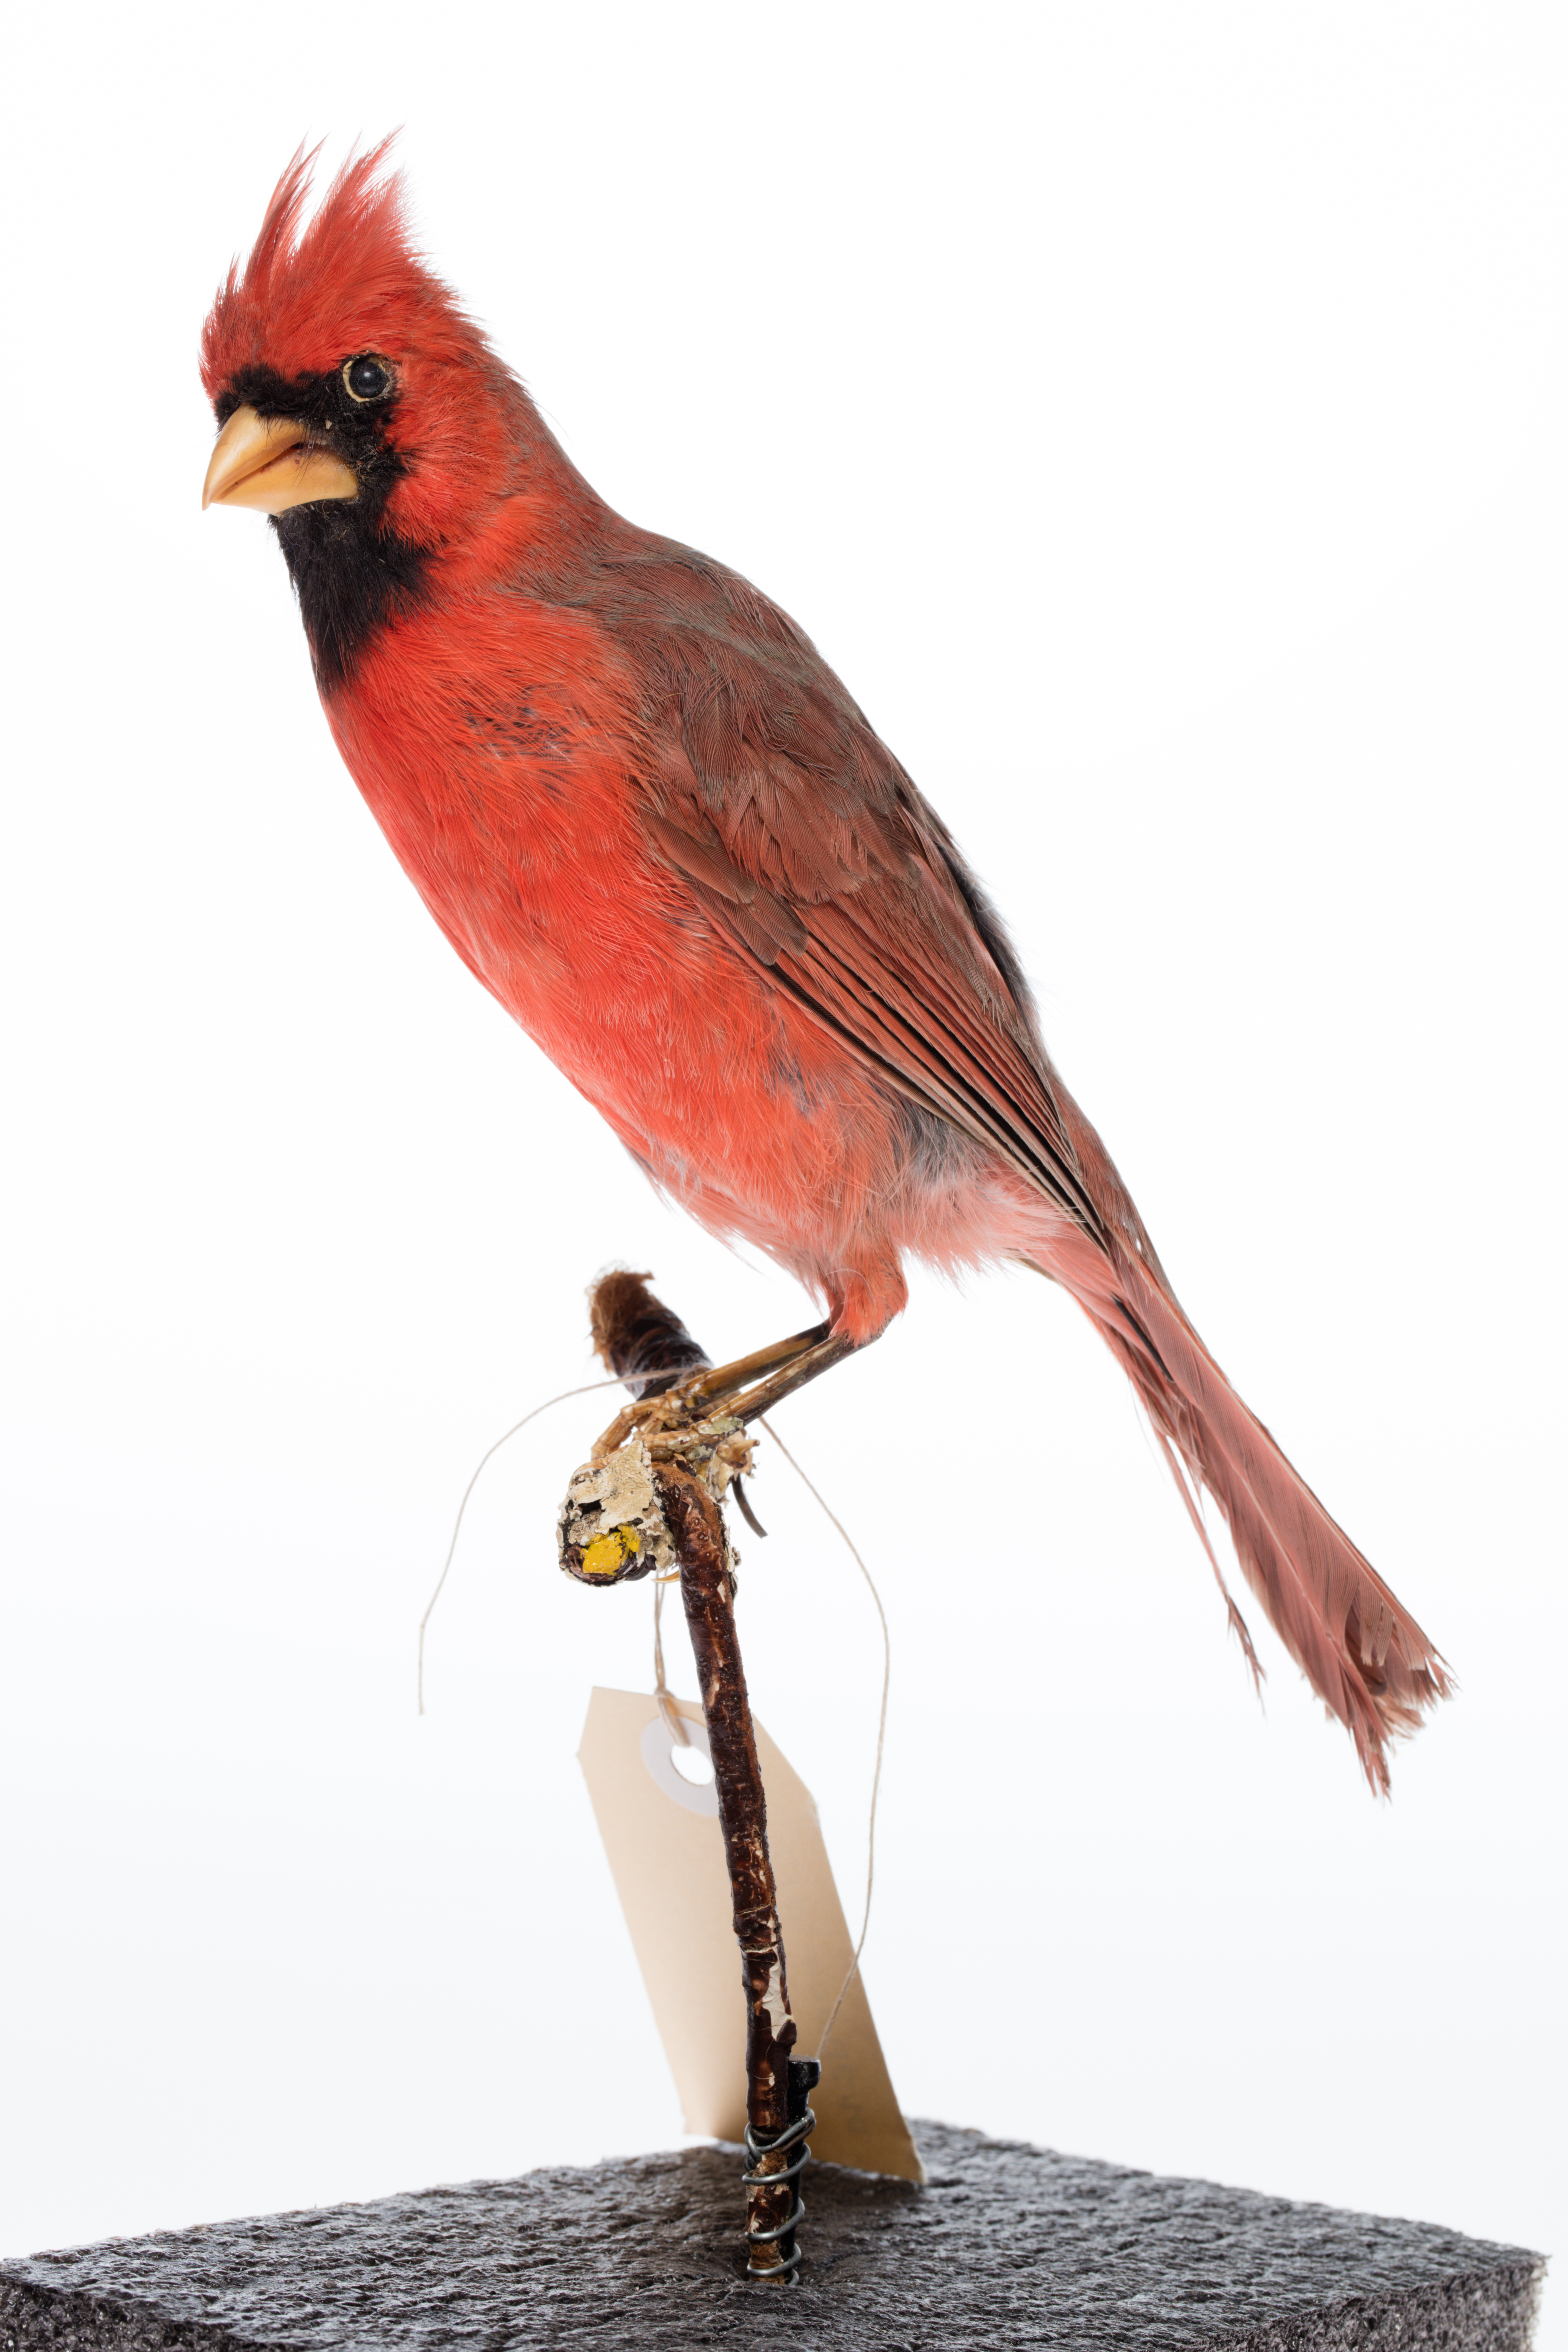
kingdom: Animalia
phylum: Chordata
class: Aves
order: Passeriformes
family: Cardinalidae
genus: Cardinalis
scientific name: Cardinalis cardinalis
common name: Northern cardinal
